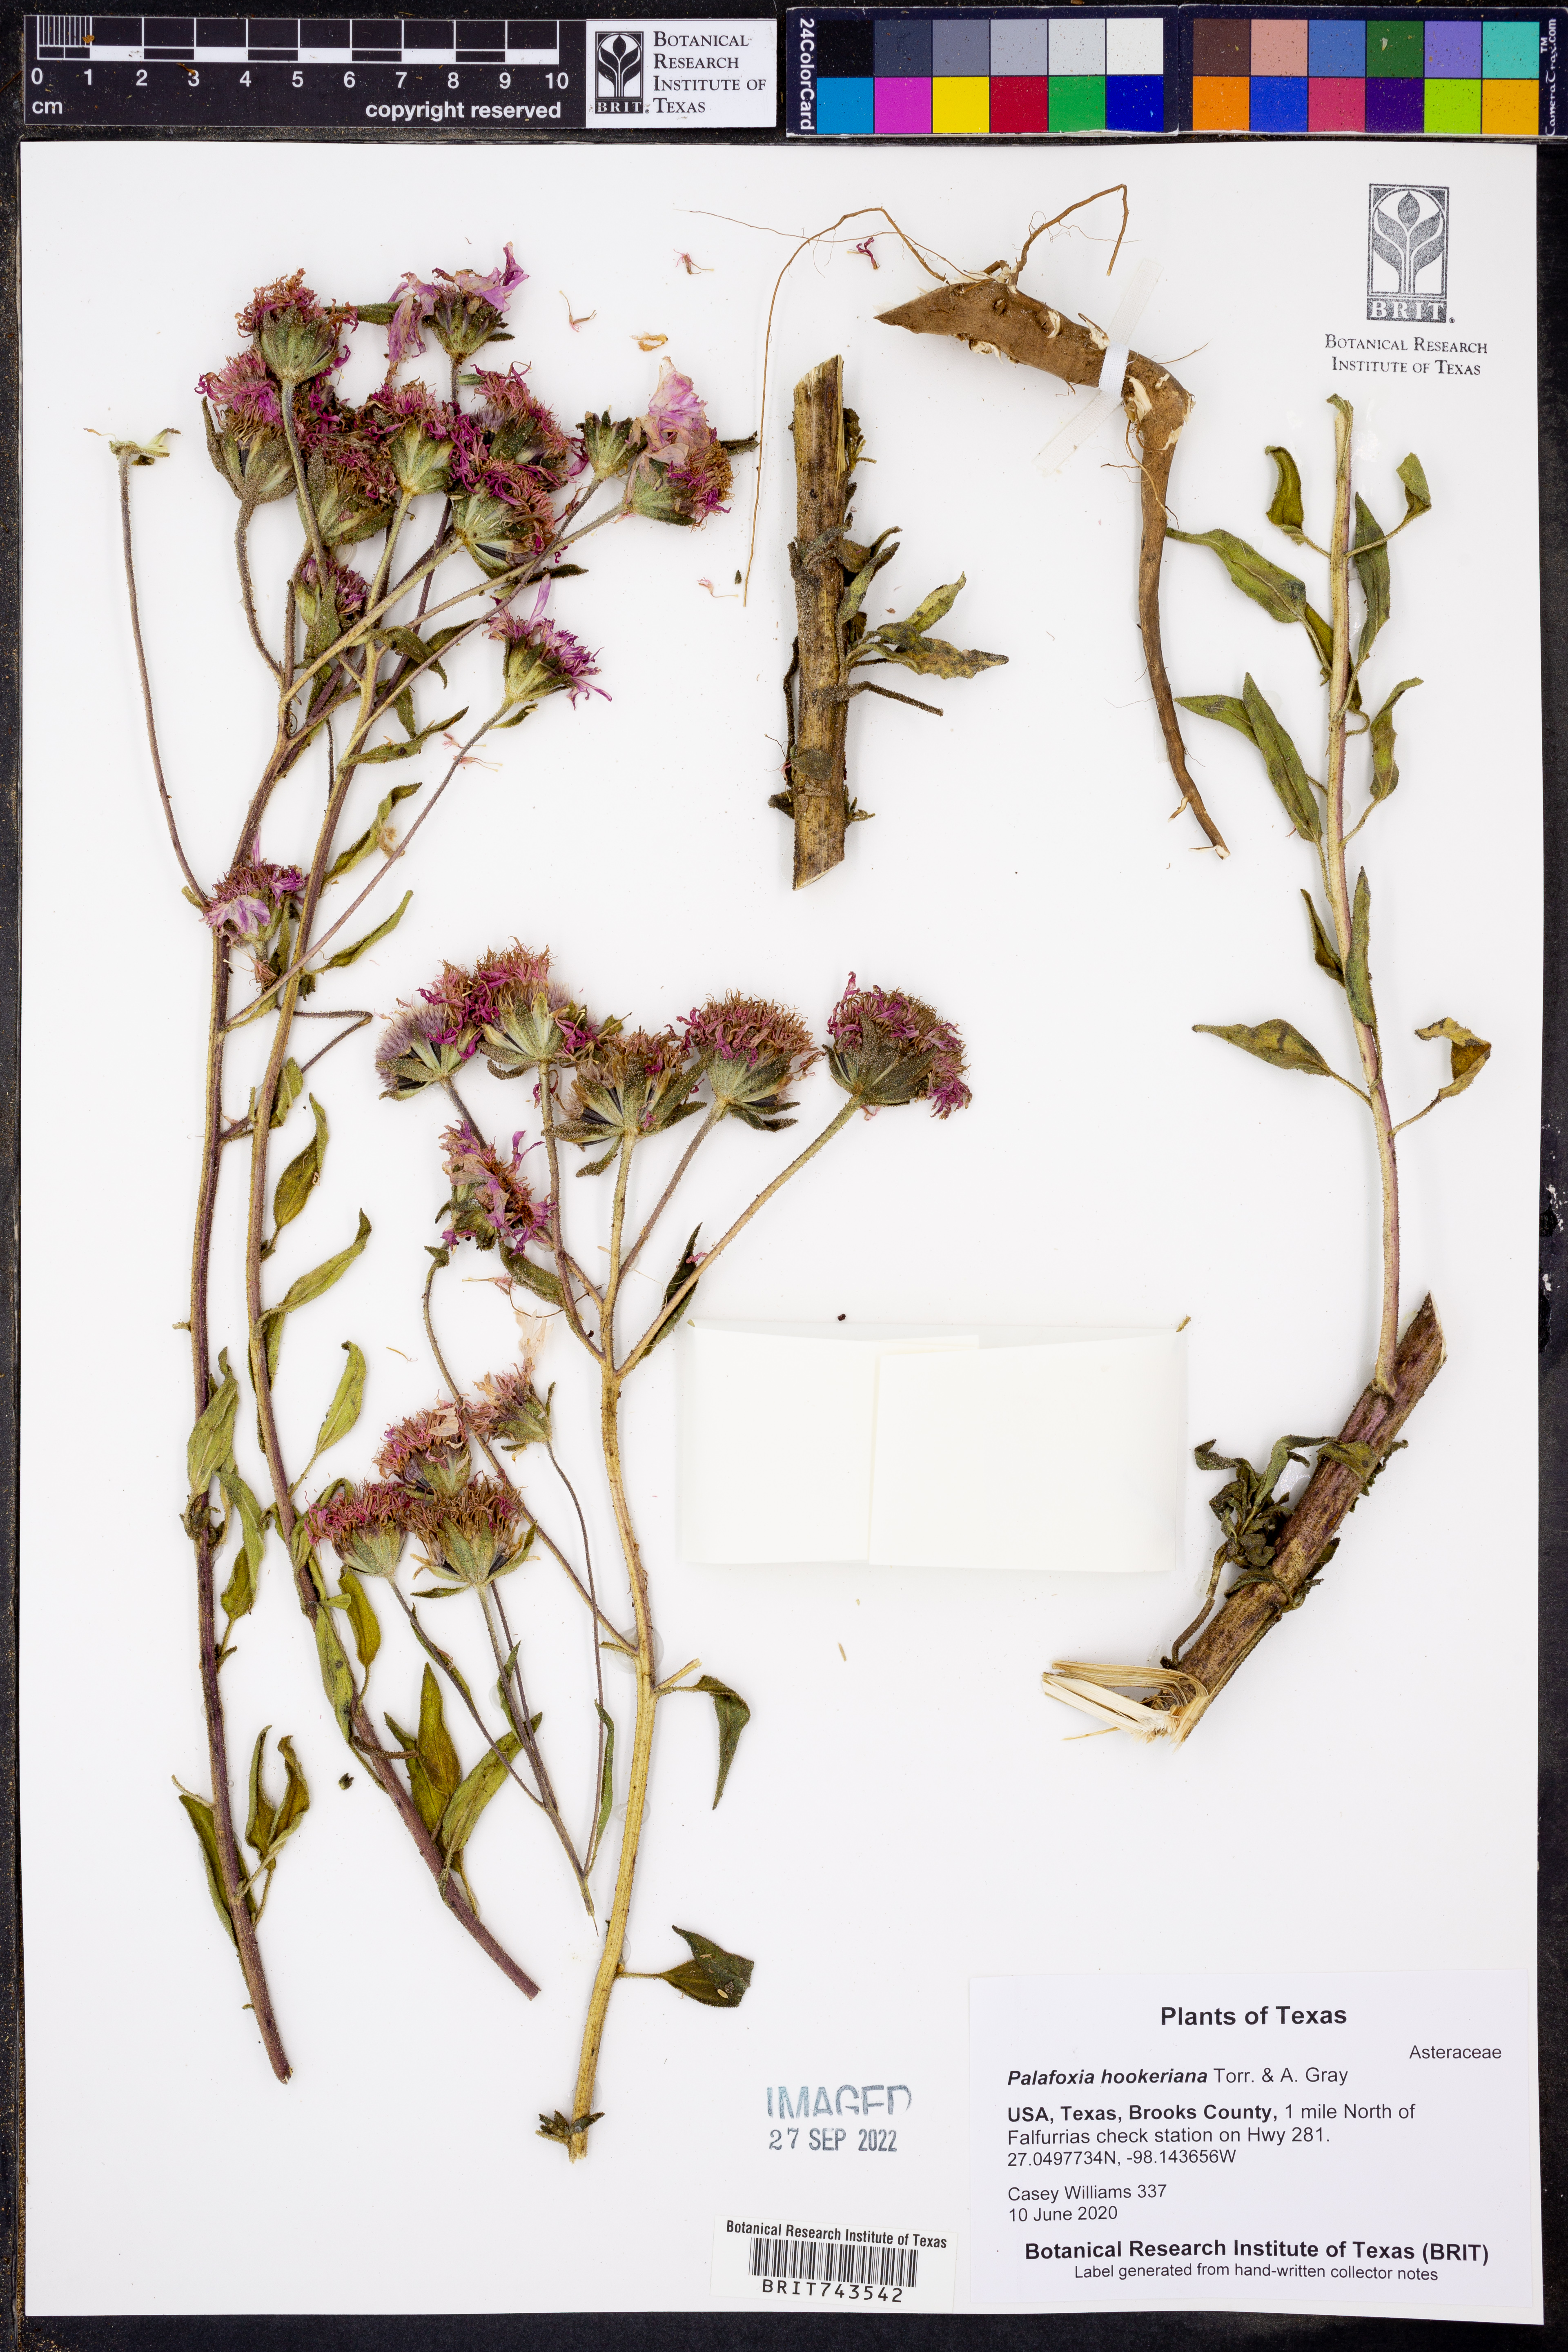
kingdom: Plantae
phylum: Tracheophyta
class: Magnoliopsida
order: Asterales
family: Asteraceae
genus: Palafoxia
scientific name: Palafoxia hookeriana
